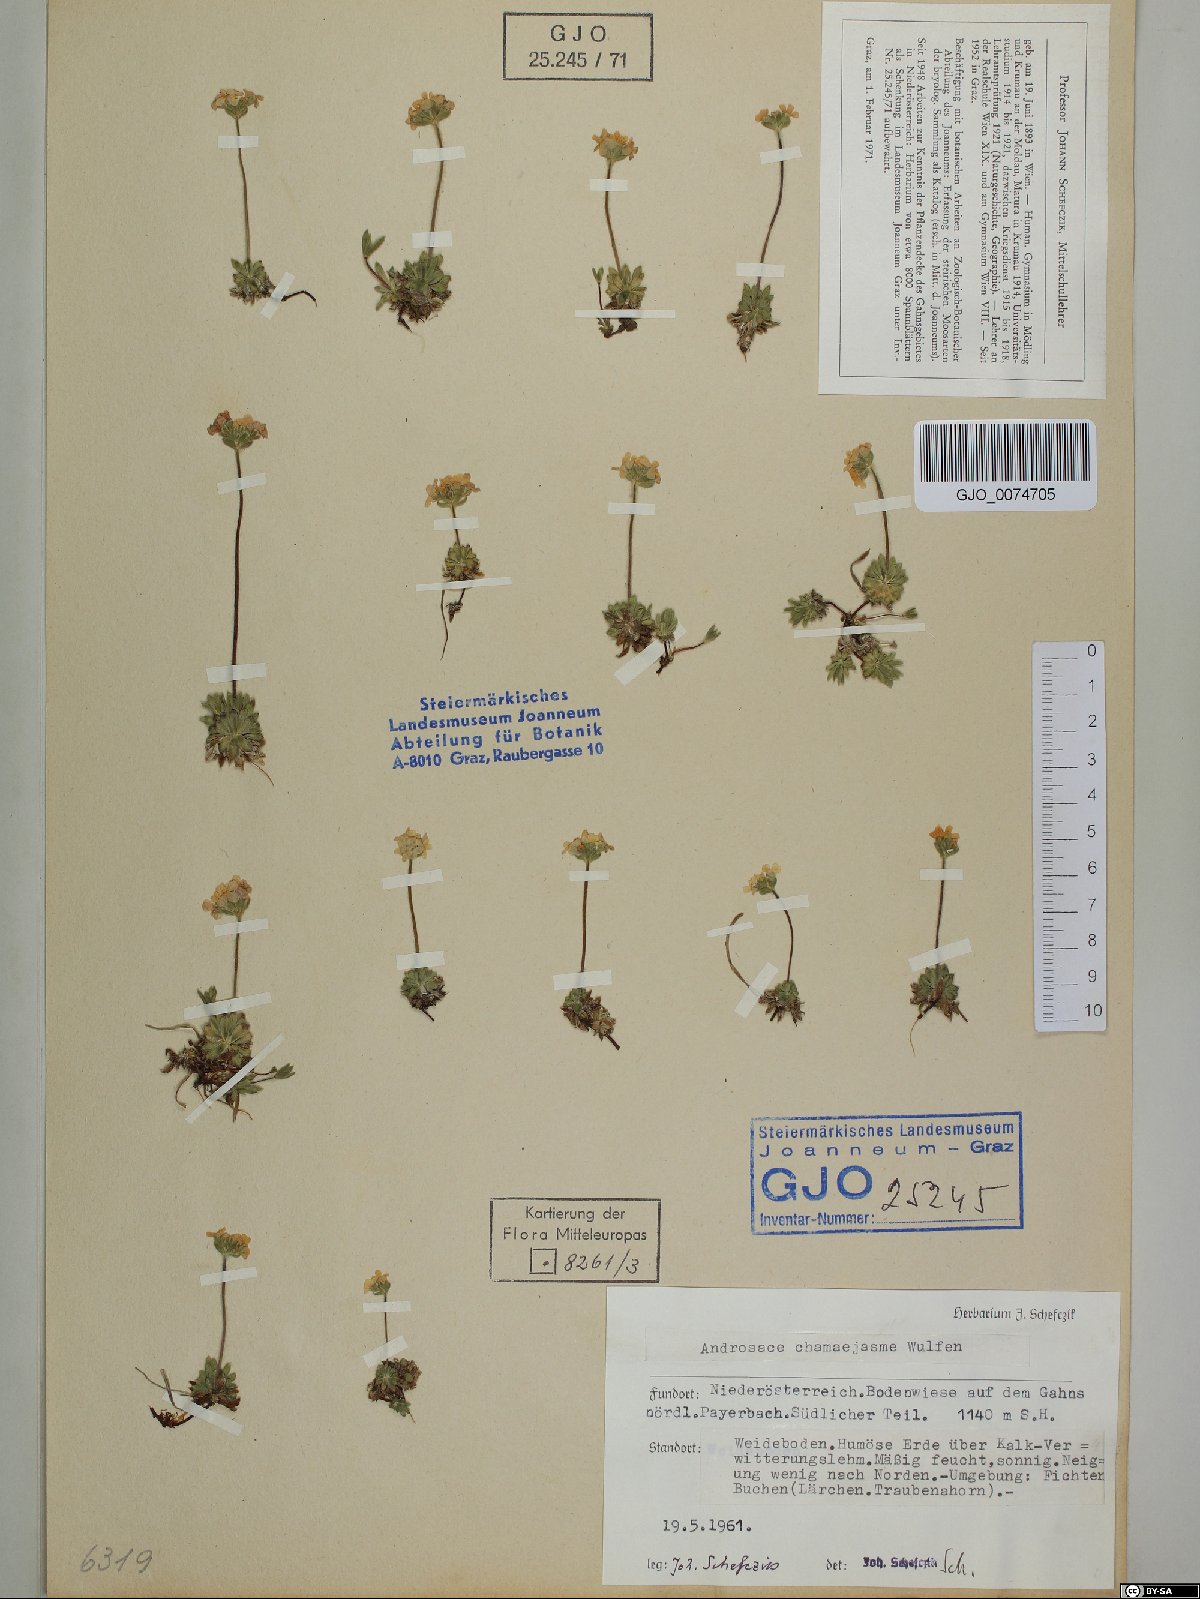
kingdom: Plantae
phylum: Tracheophyta
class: Magnoliopsida
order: Ericales
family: Primulaceae
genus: Androsace
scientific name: Androsace chamaejasme
